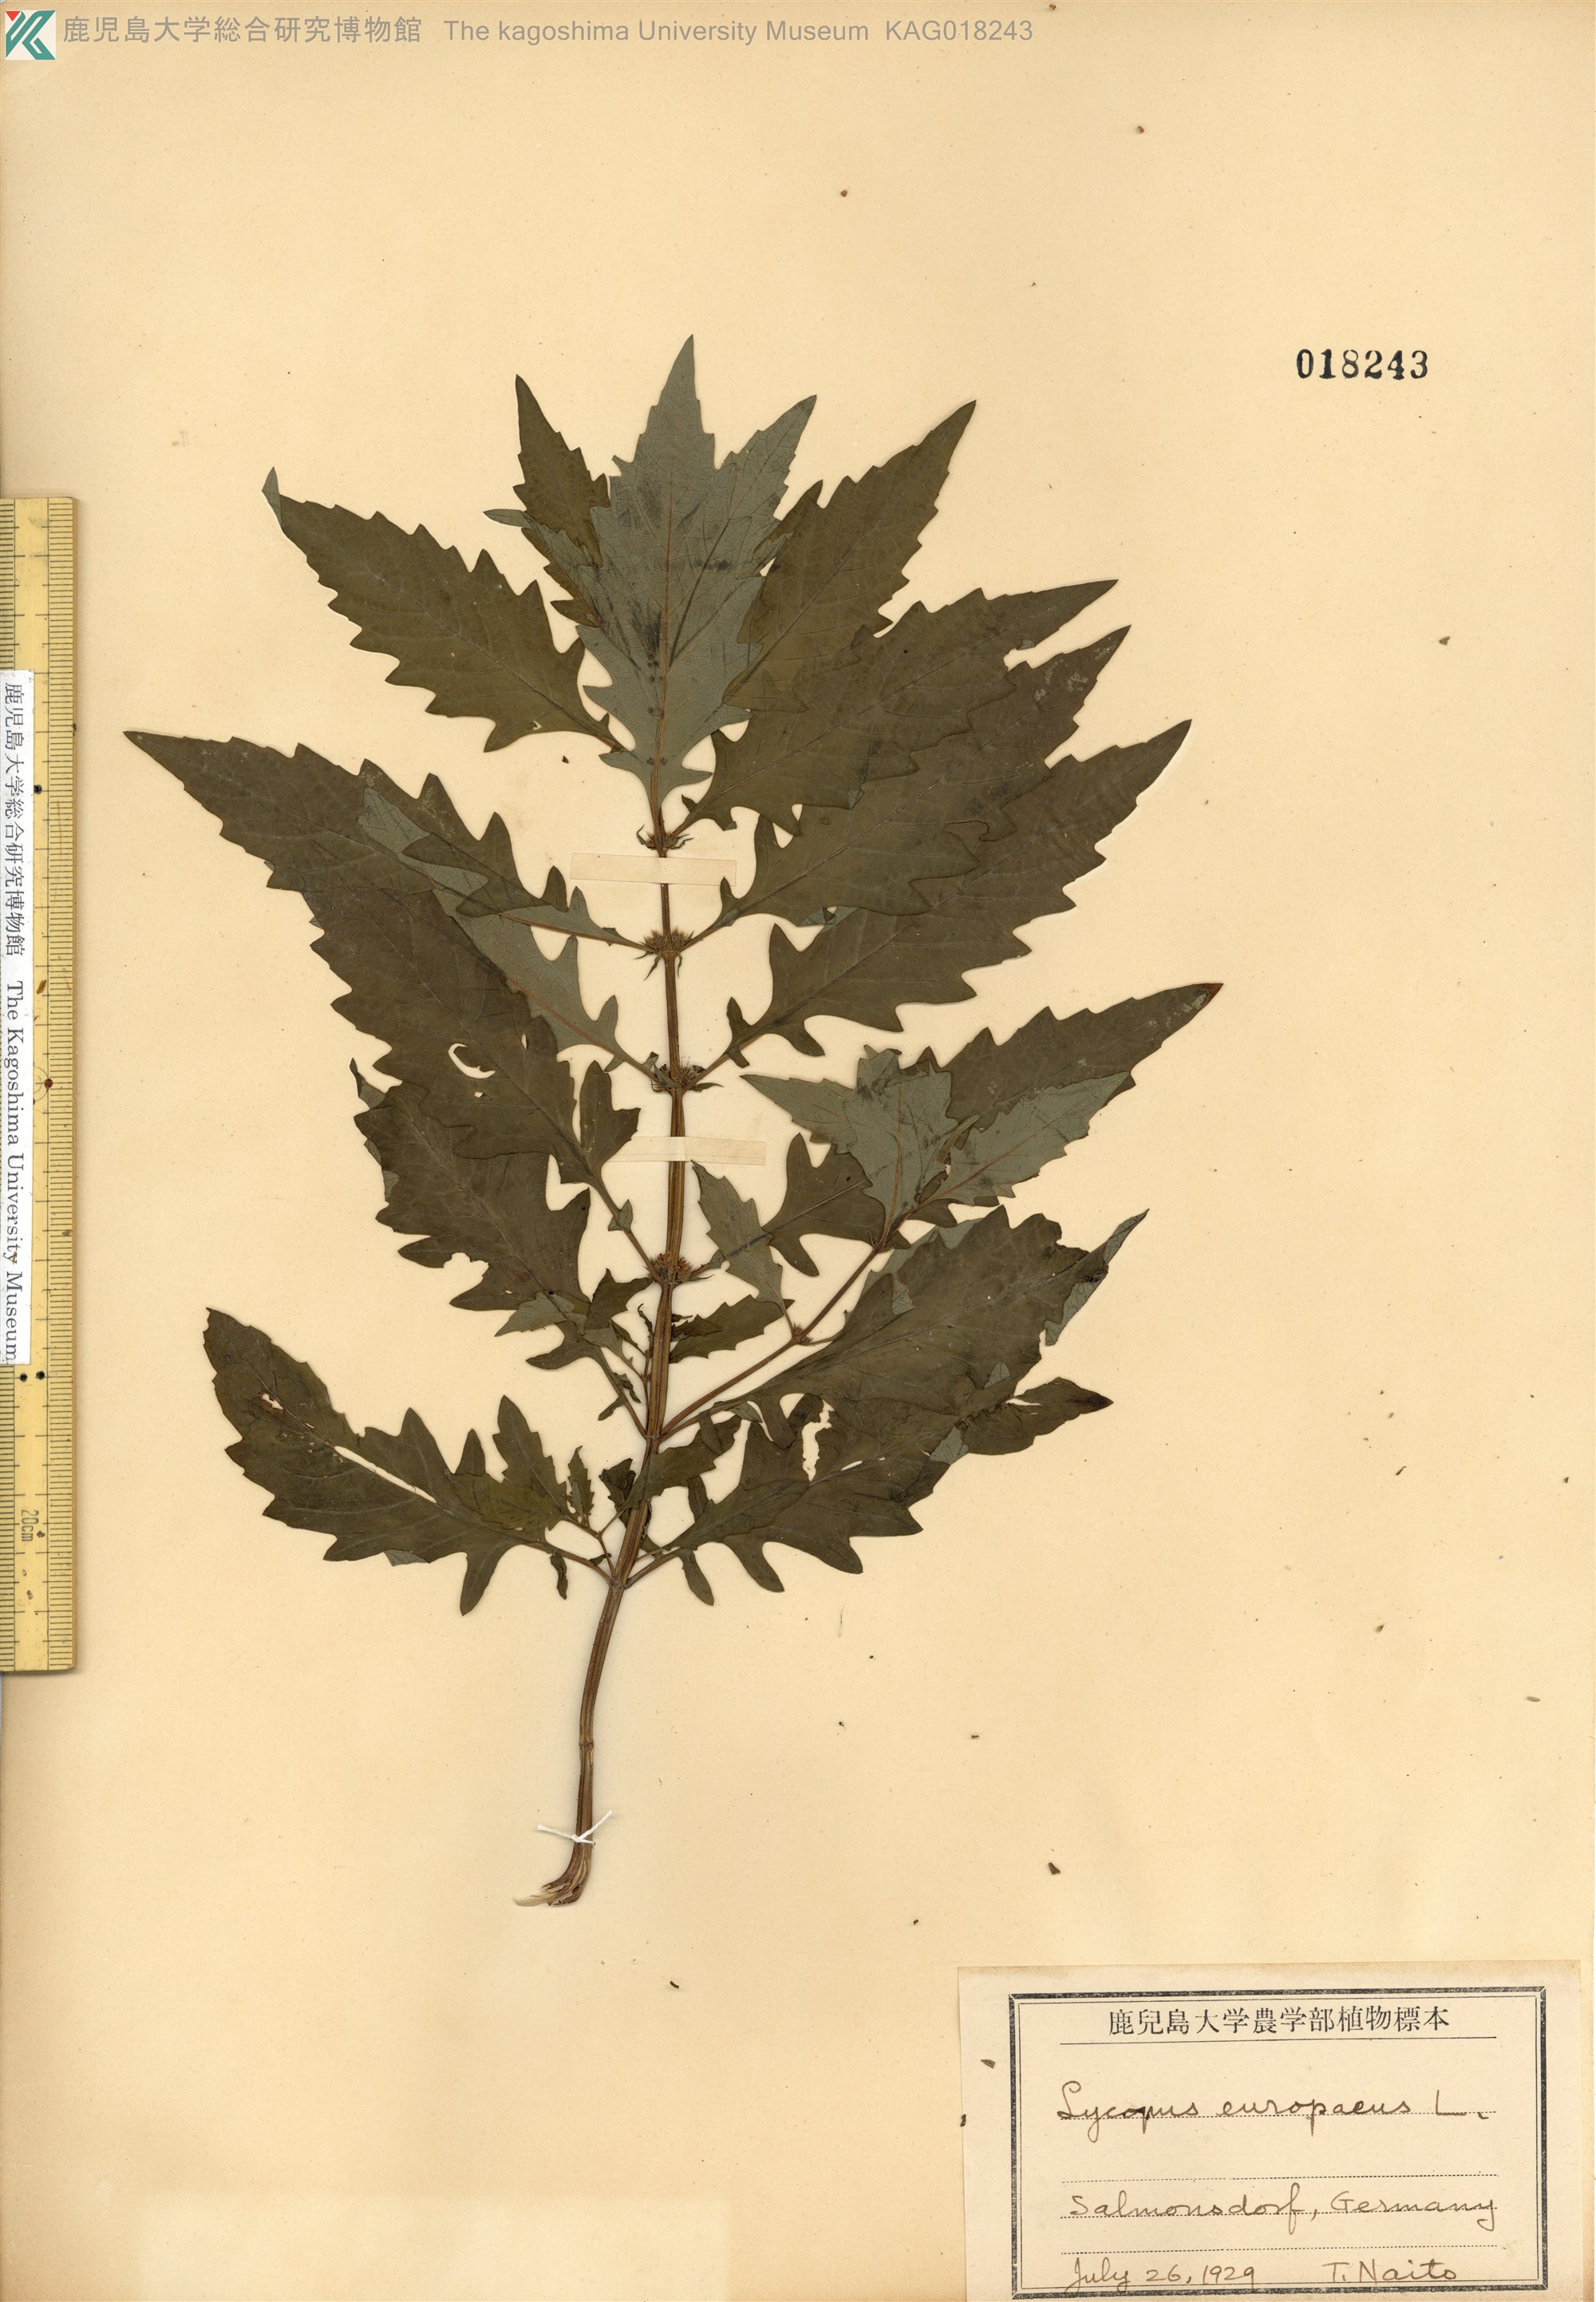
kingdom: Plantae
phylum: Tracheophyta
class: Magnoliopsida
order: Lamiales
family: Lamiaceae
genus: Lycopus
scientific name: Lycopus europaeus
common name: European bugleweed
